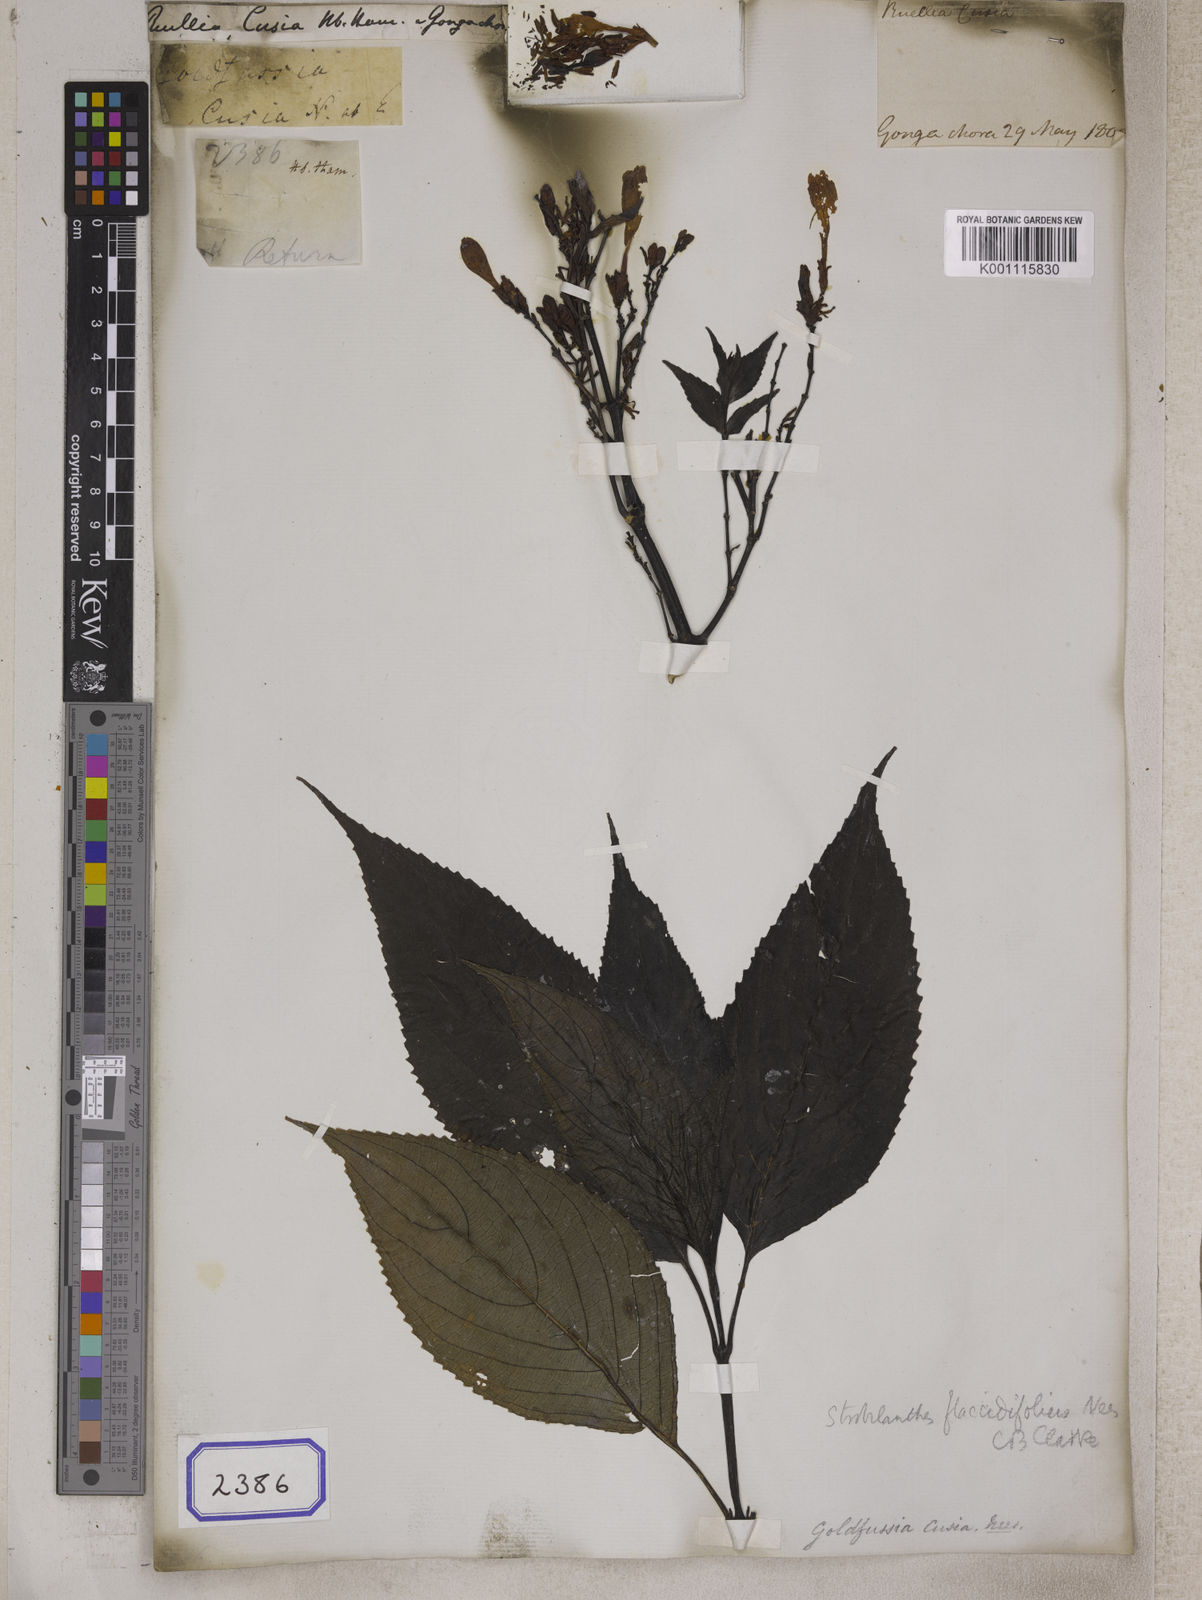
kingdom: Plantae
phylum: Tracheophyta
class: Magnoliopsida
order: Lamiales
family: Acanthaceae
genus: Strobilanthes
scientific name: Strobilanthes cusia
